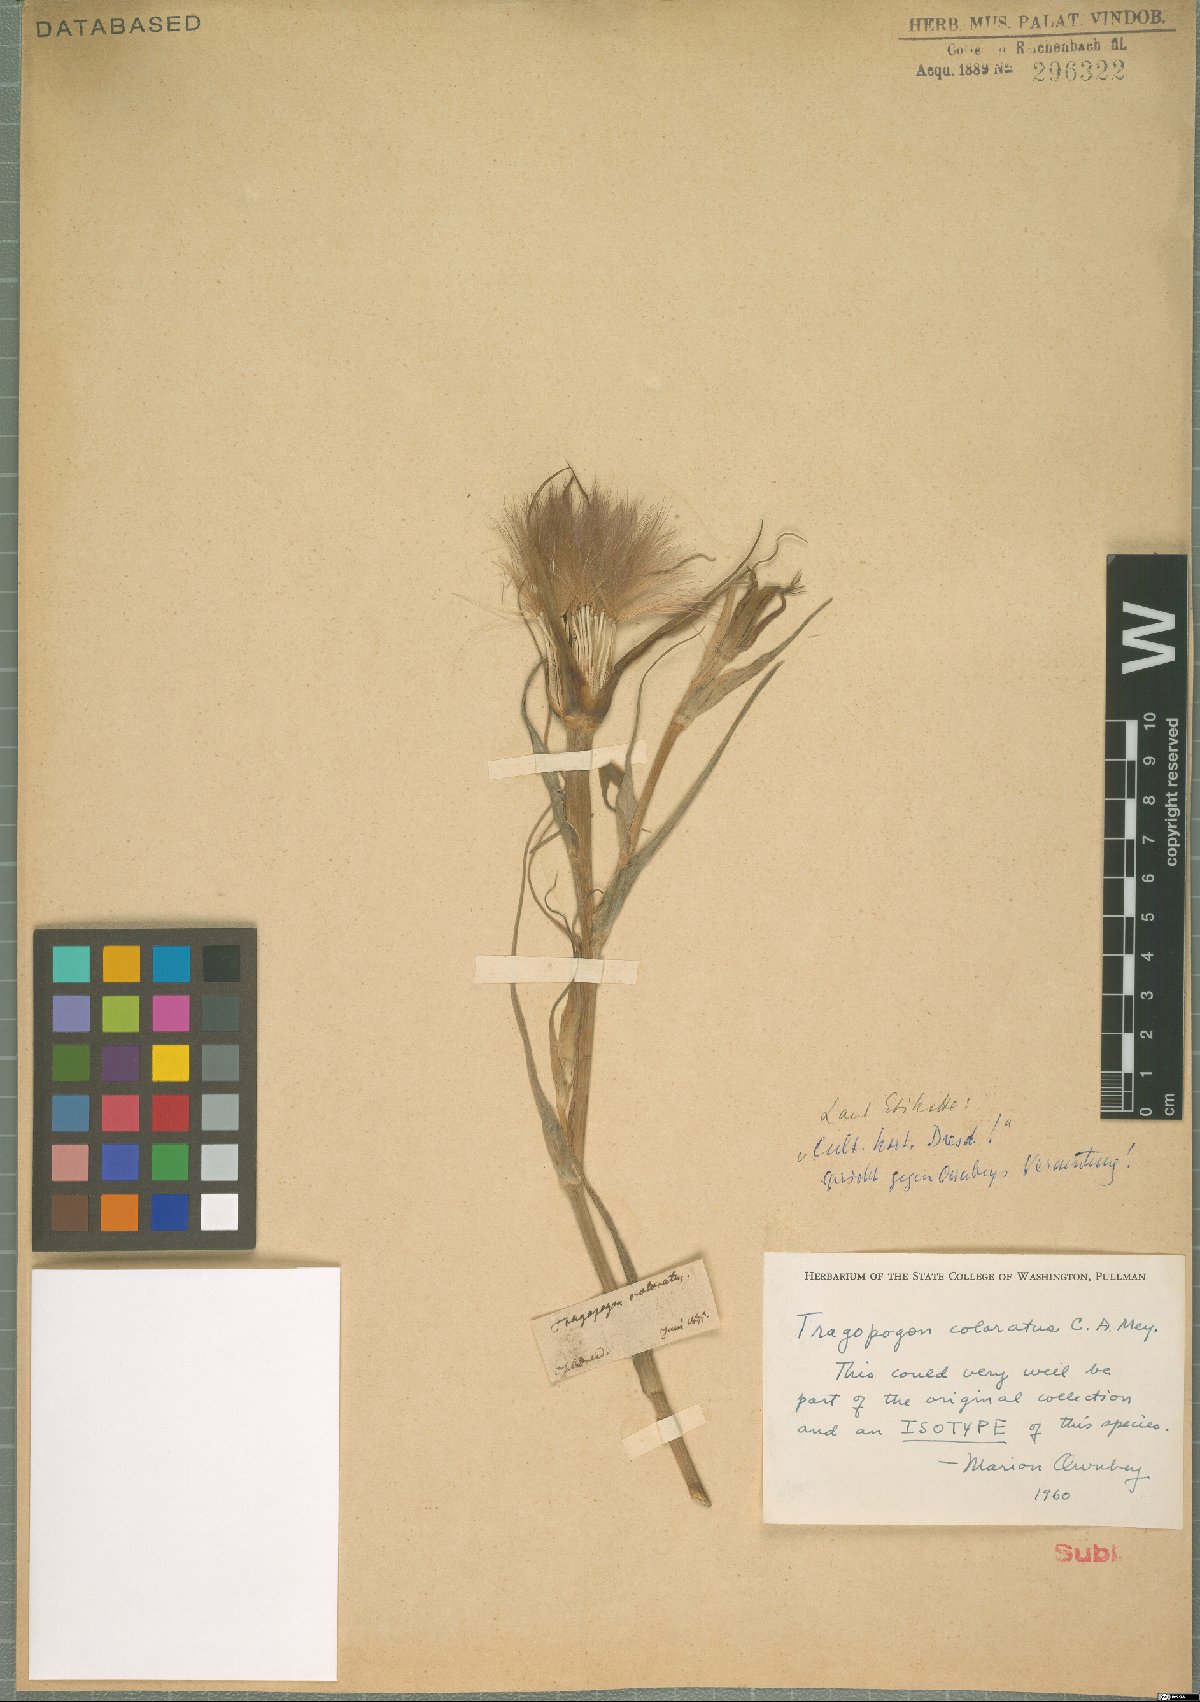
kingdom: Plantae
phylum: Tracheophyta
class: Magnoliopsida
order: Asterales
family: Asteraceae
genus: Tragopogon
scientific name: Tragopogon coloratus
